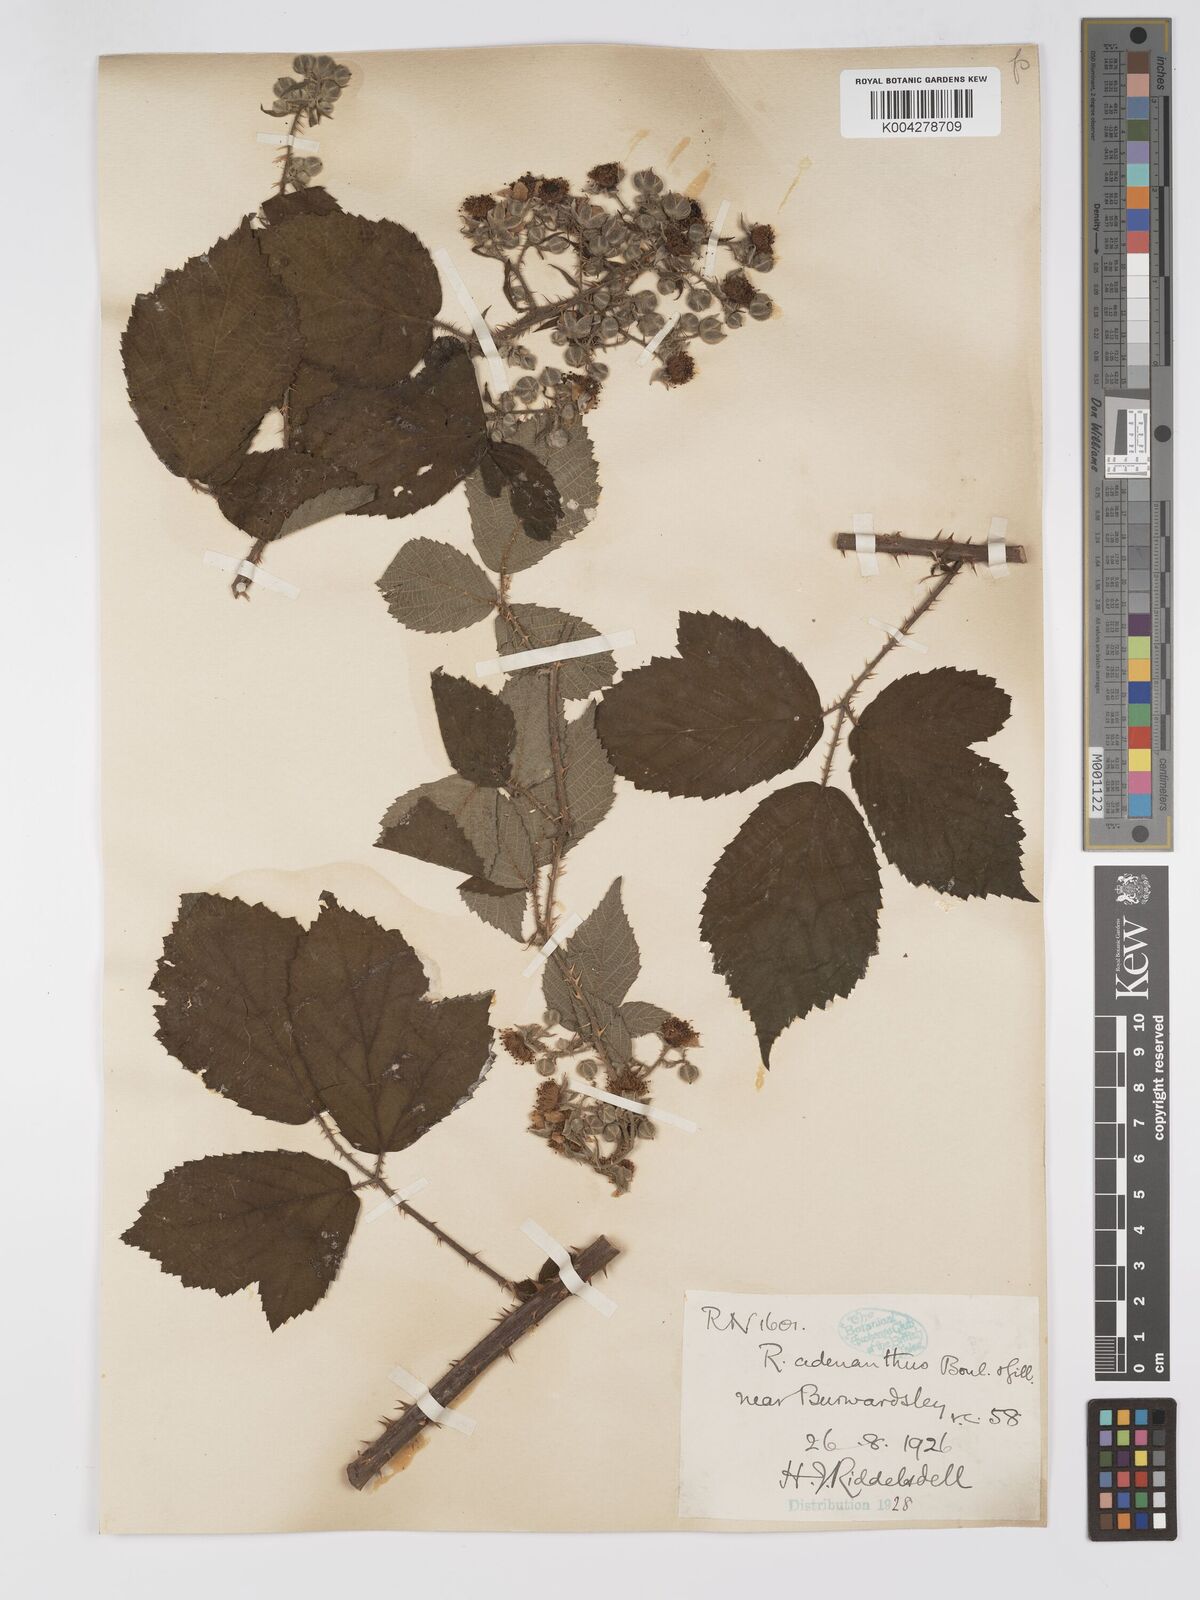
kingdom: Plantae
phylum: Tracheophyta
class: Magnoliopsida
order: Rosales
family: Rosaceae
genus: Rubus
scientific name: Rubus swinhoei
